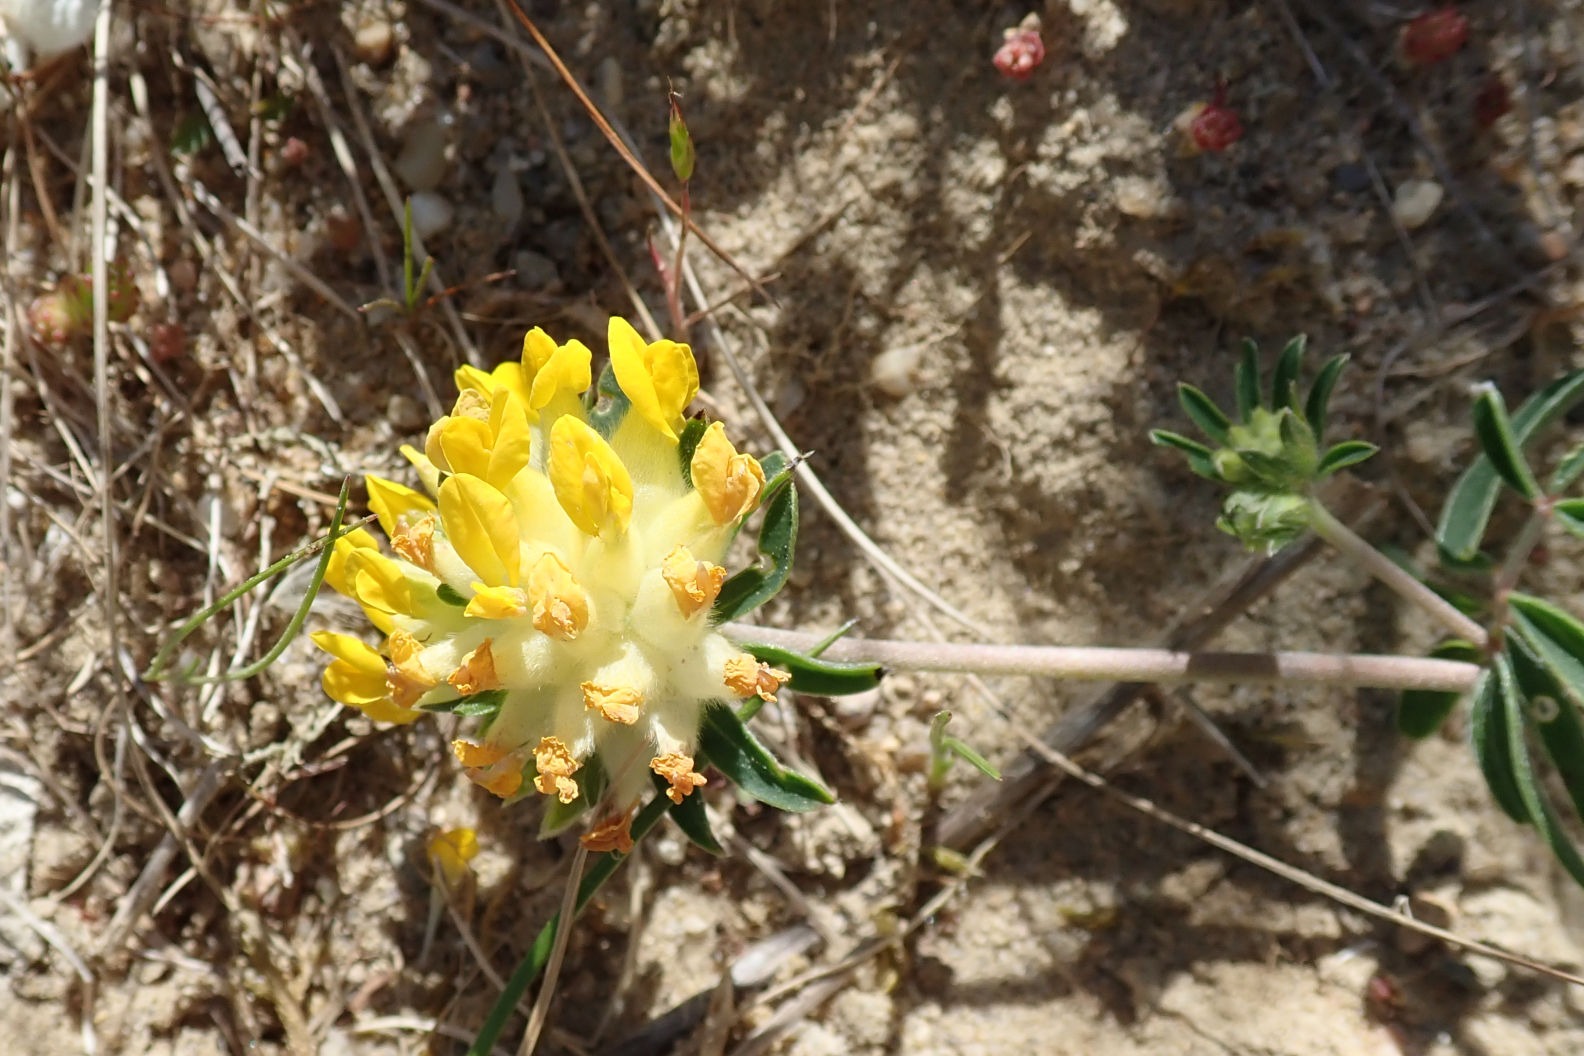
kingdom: Plantae
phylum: Tracheophyta
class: Magnoliopsida
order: Fabales
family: Fabaceae
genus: Anthyllis
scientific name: Anthyllis vulneraria
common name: Rundbælg
